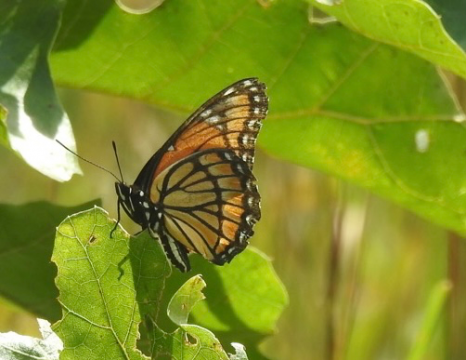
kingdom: Animalia
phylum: Arthropoda
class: Insecta
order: Lepidoptera
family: Nymphalidae
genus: Limenitis
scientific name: Limenitis archippus
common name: Viceroy
